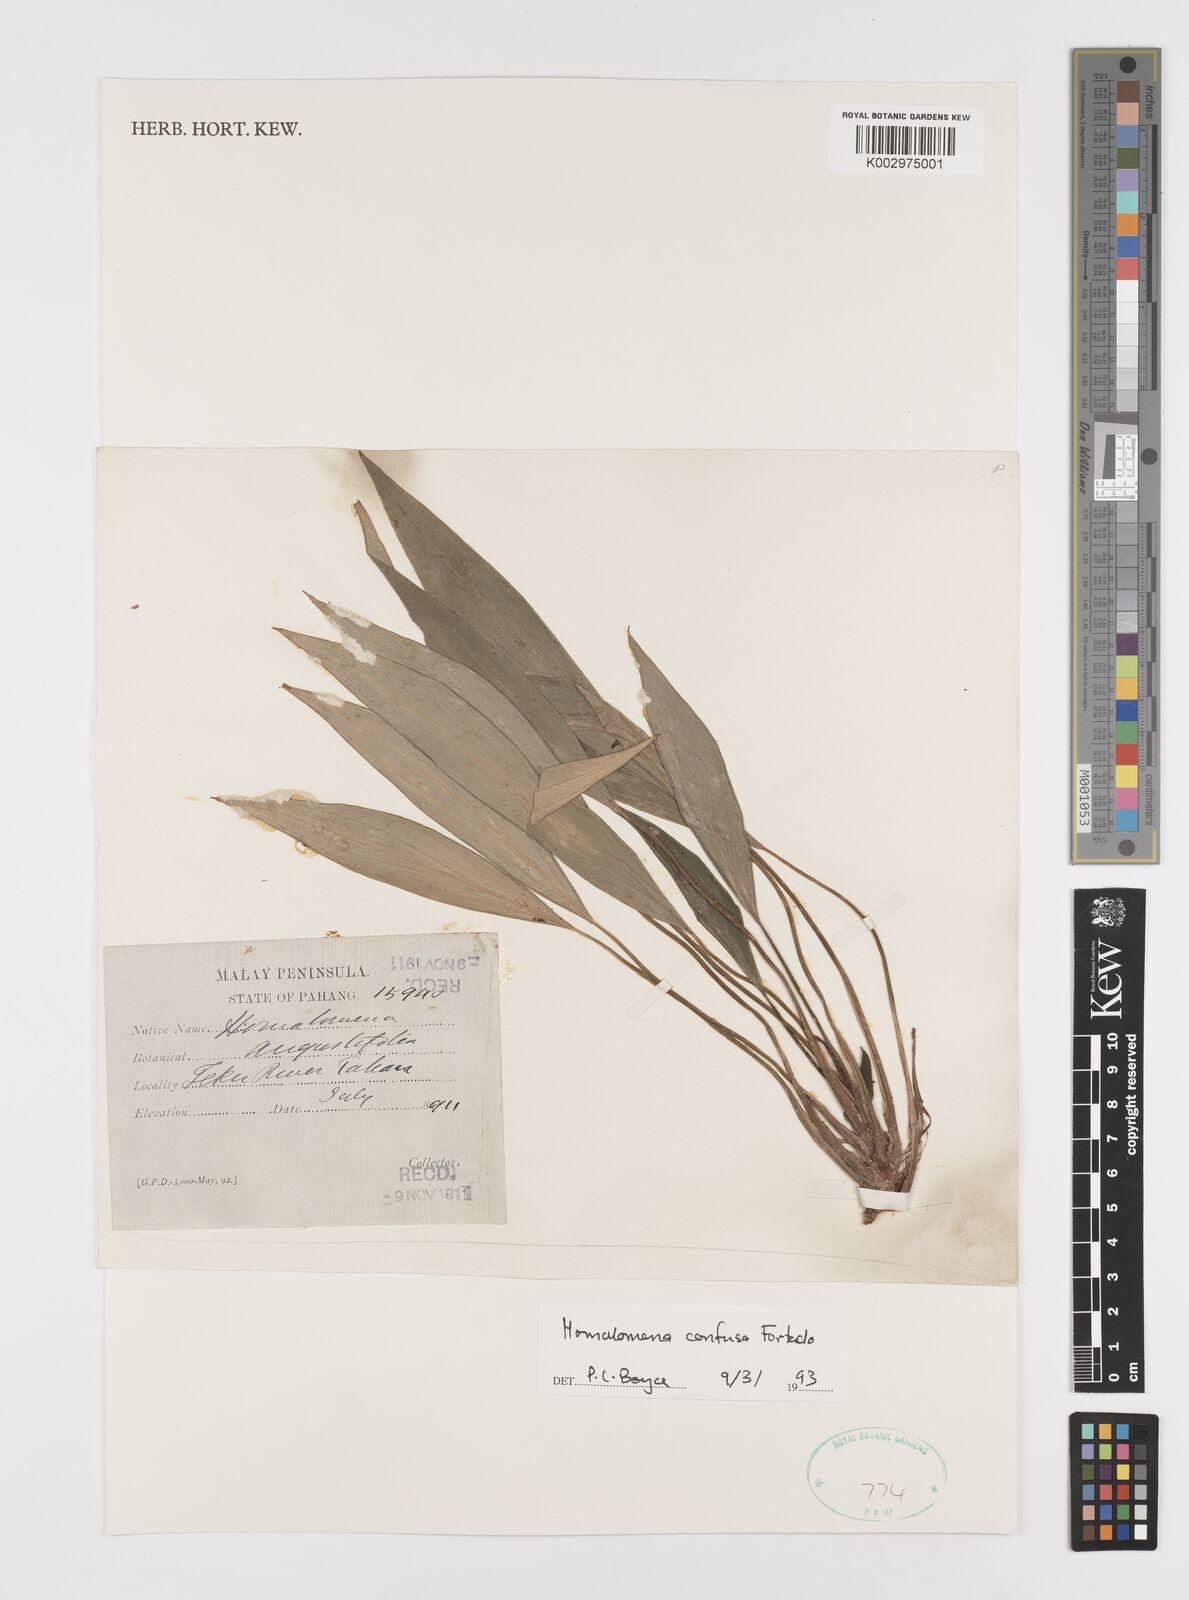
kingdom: Plantae
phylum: Tracheophyta
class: Liliopsida
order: Alismatales
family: Araceae
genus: Homalomena
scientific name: Homalomena confusa
